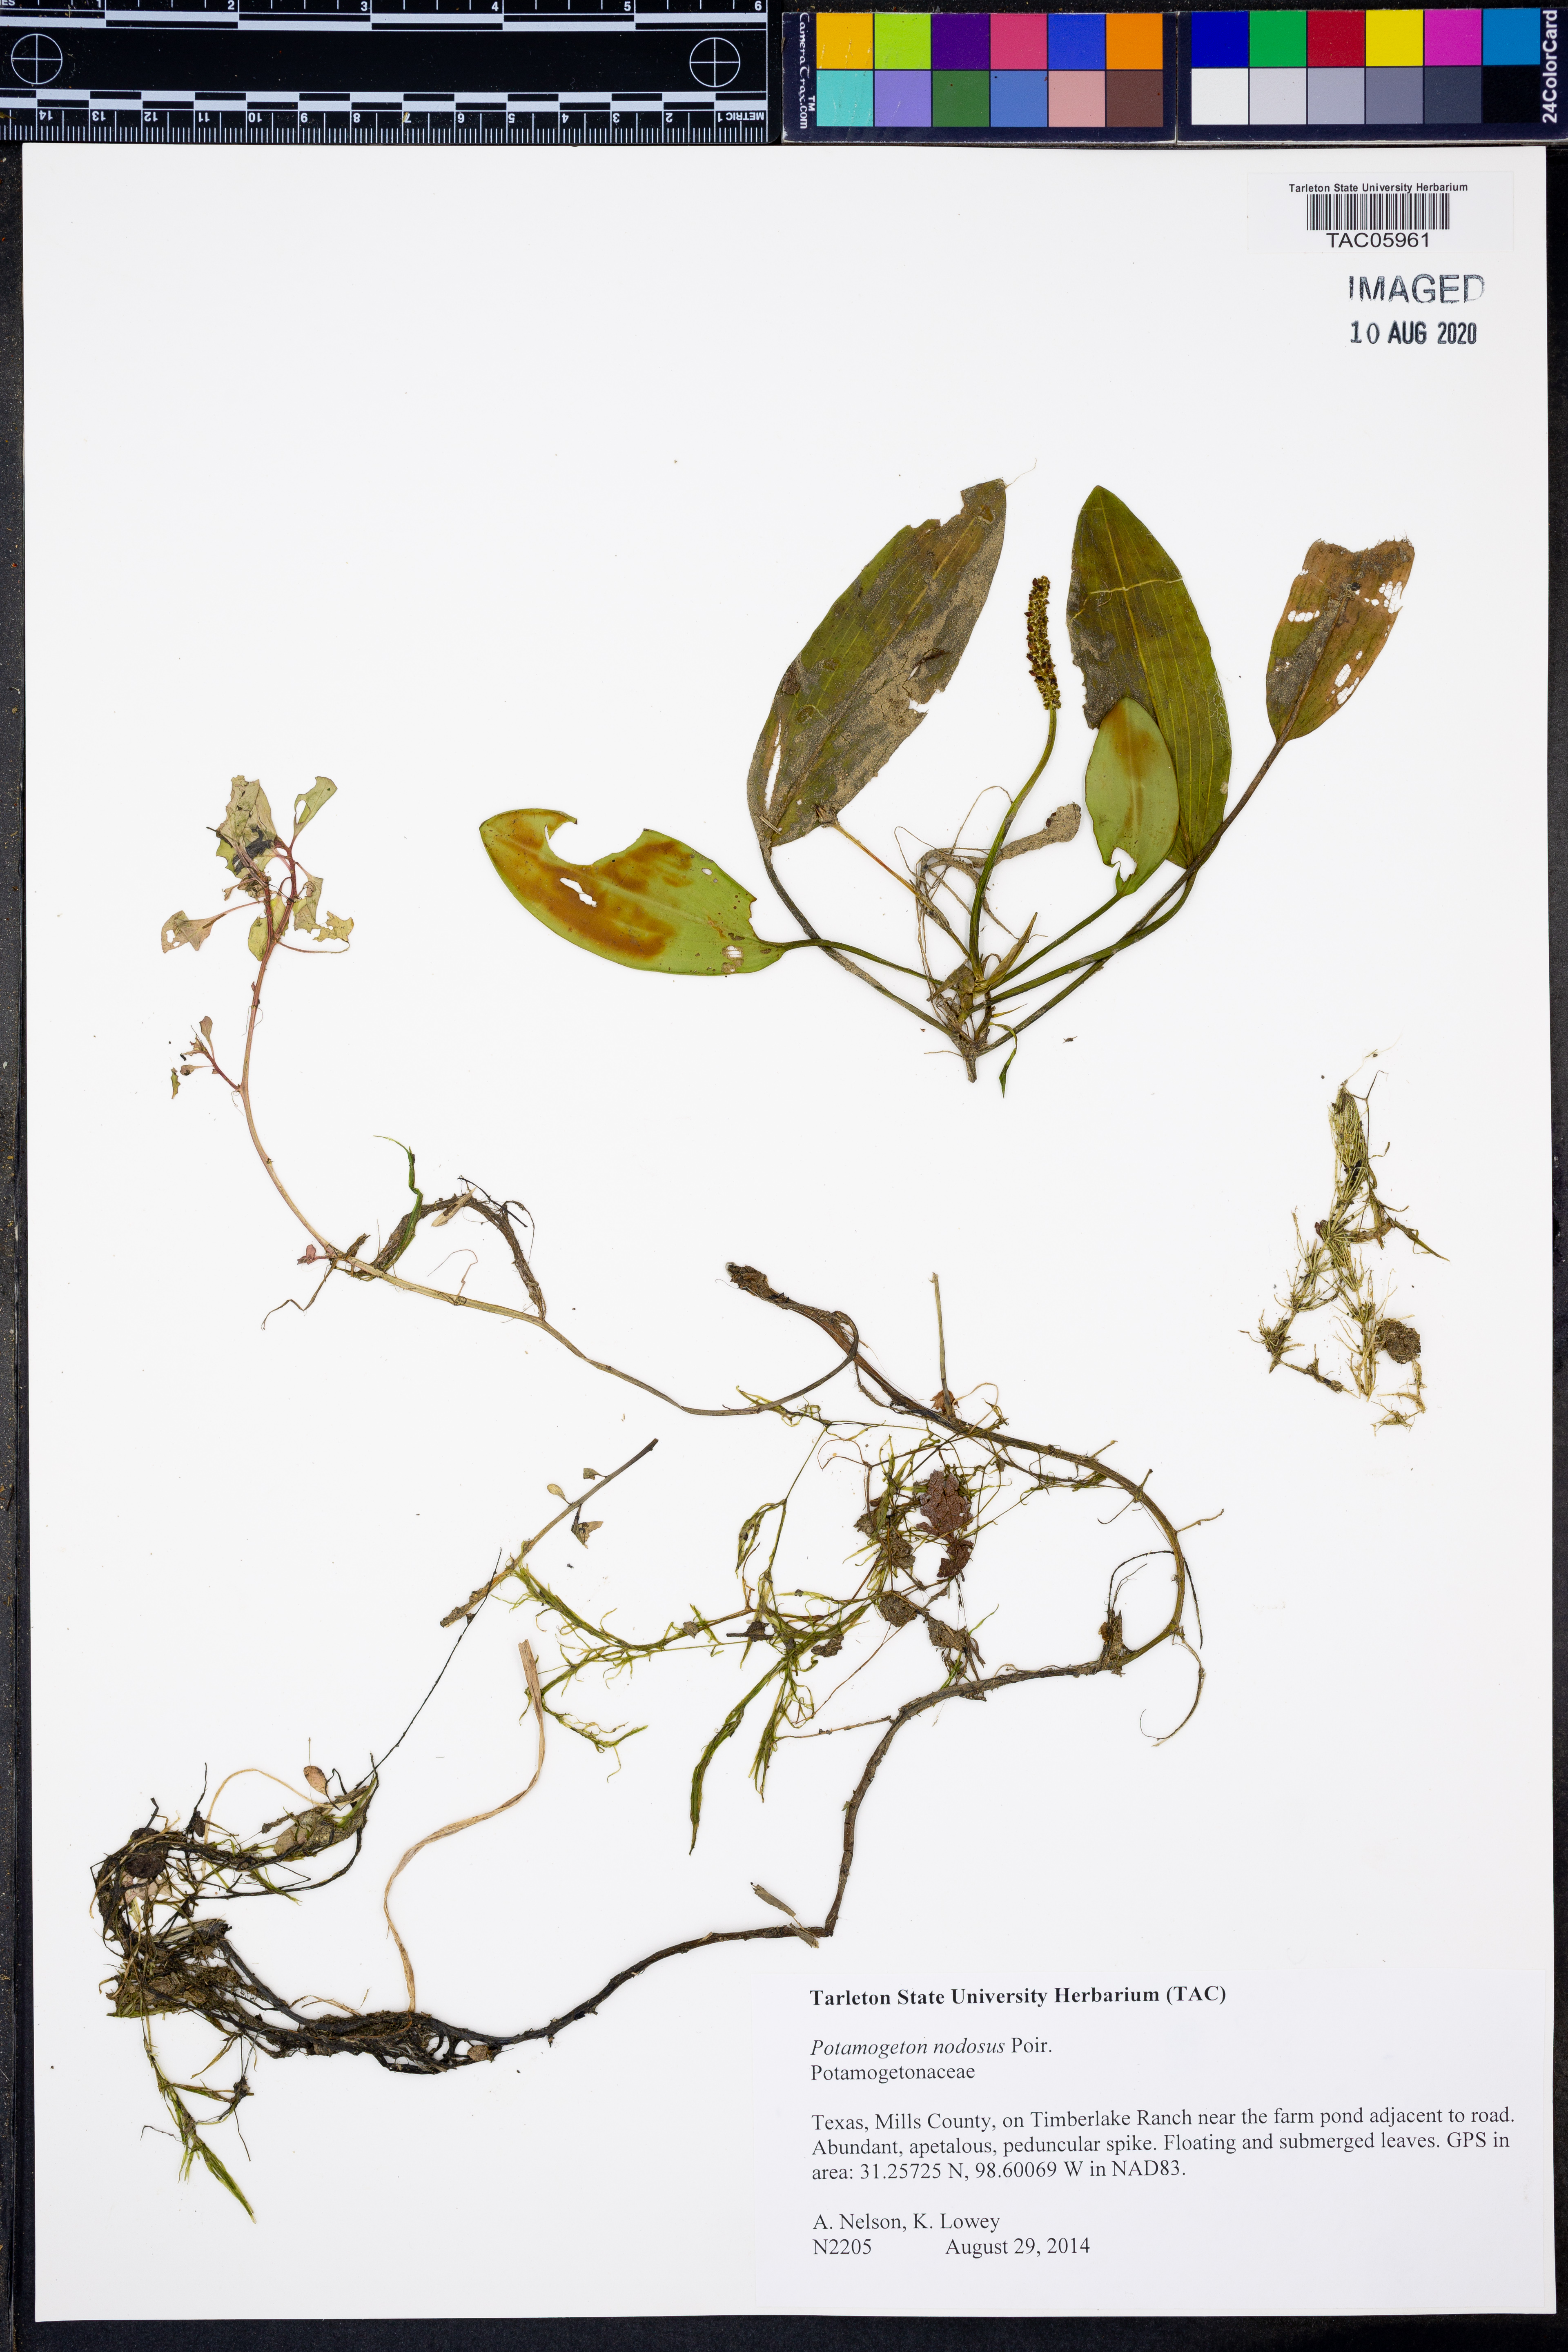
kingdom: Plantae
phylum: Tracheophyta
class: Liliopsida
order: Alismatales
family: Potamogetonaceae
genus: Potamogeton
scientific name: Potamogeton nodosus
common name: Loddon pondweed
